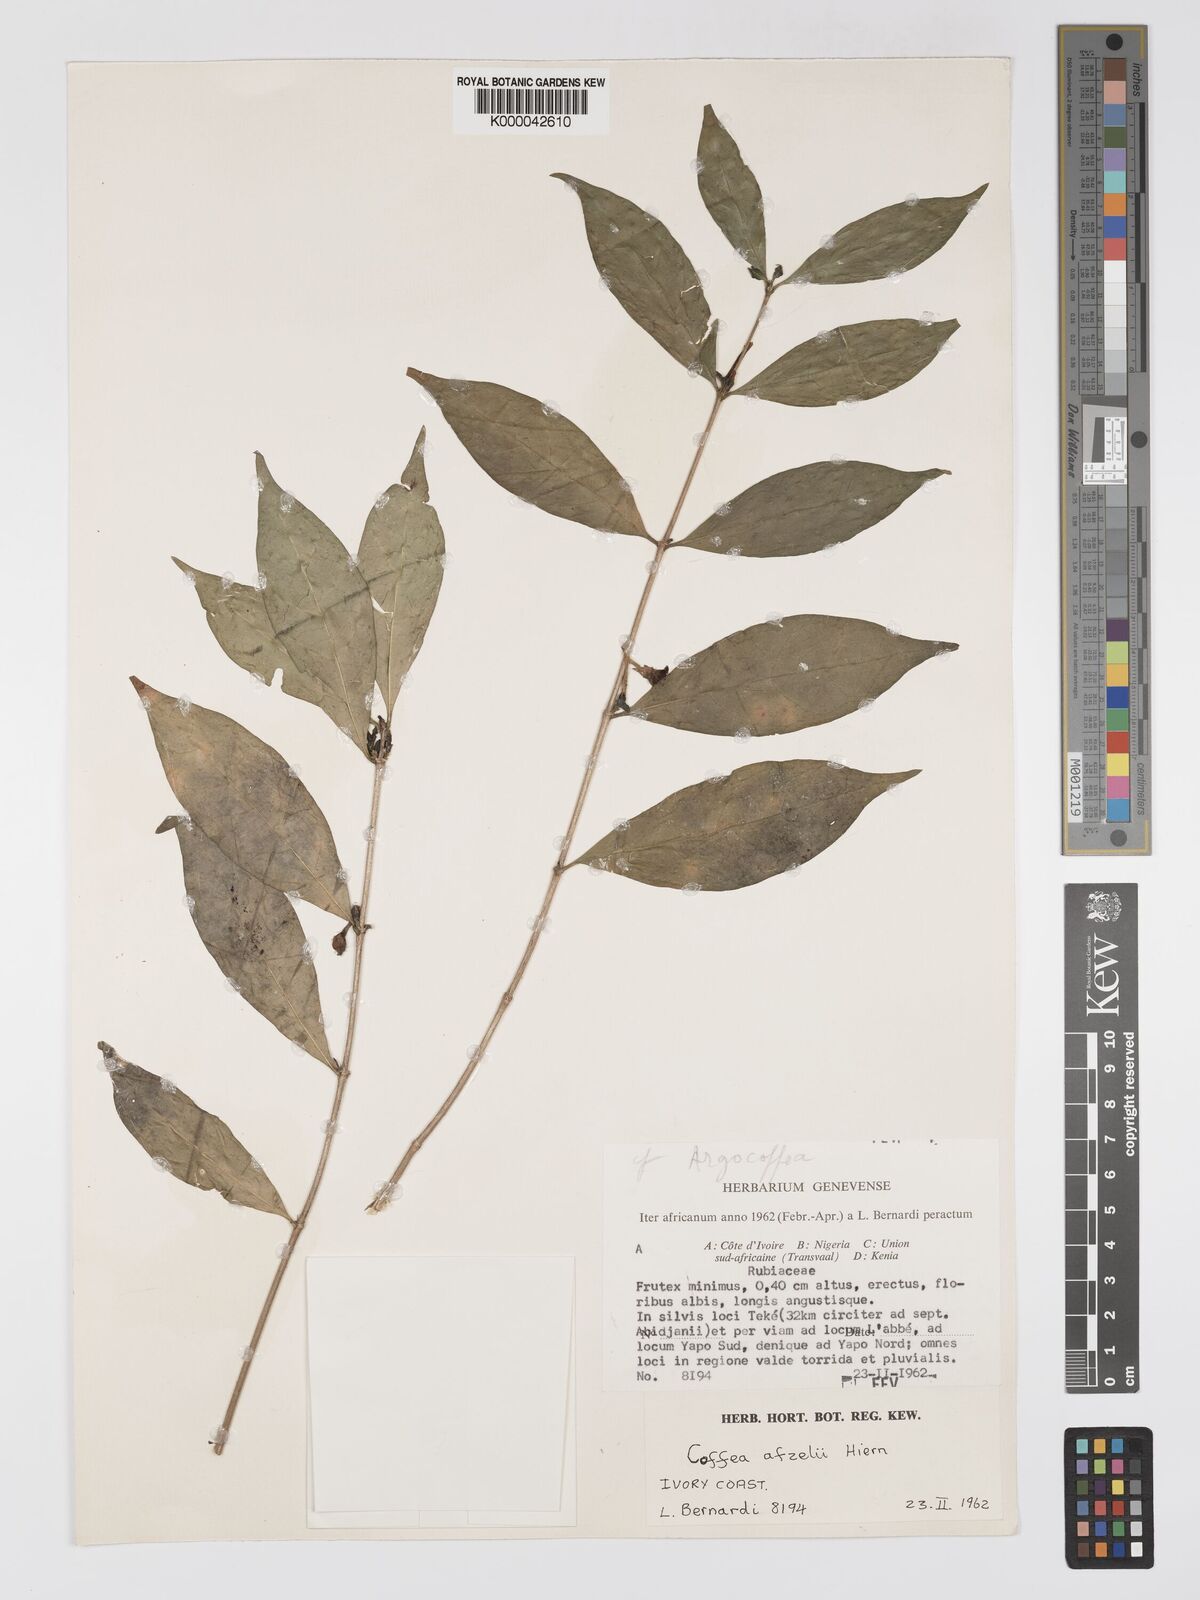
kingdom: Plantae
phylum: Tracheophyta
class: Magnoliopsida
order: Gentianales
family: Rubiaceae
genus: Argocoffeopsis
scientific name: Argocoffeopsis afzelii
